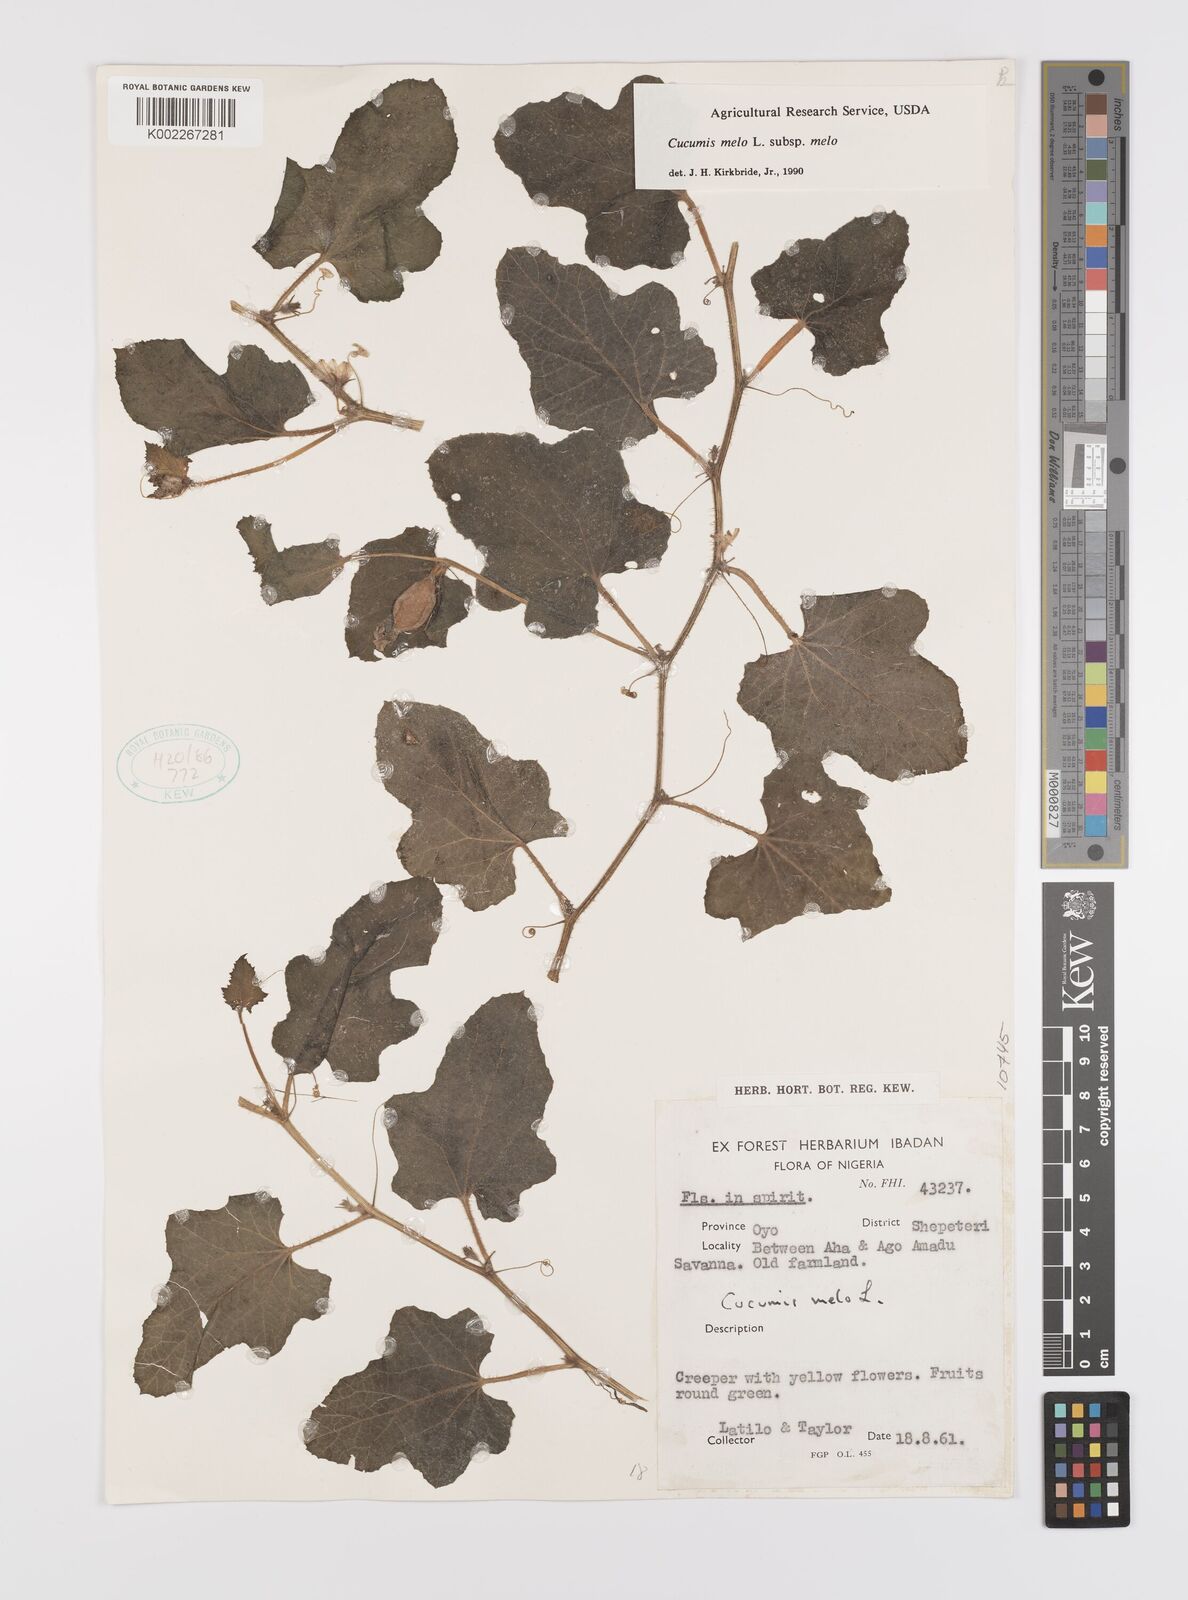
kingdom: Plantae
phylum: Tracheophyta
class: Magnoliopsida
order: Cucurbitales
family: Cucurbitaceae
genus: Cucumis
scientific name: Cucumis melo
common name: Melon
